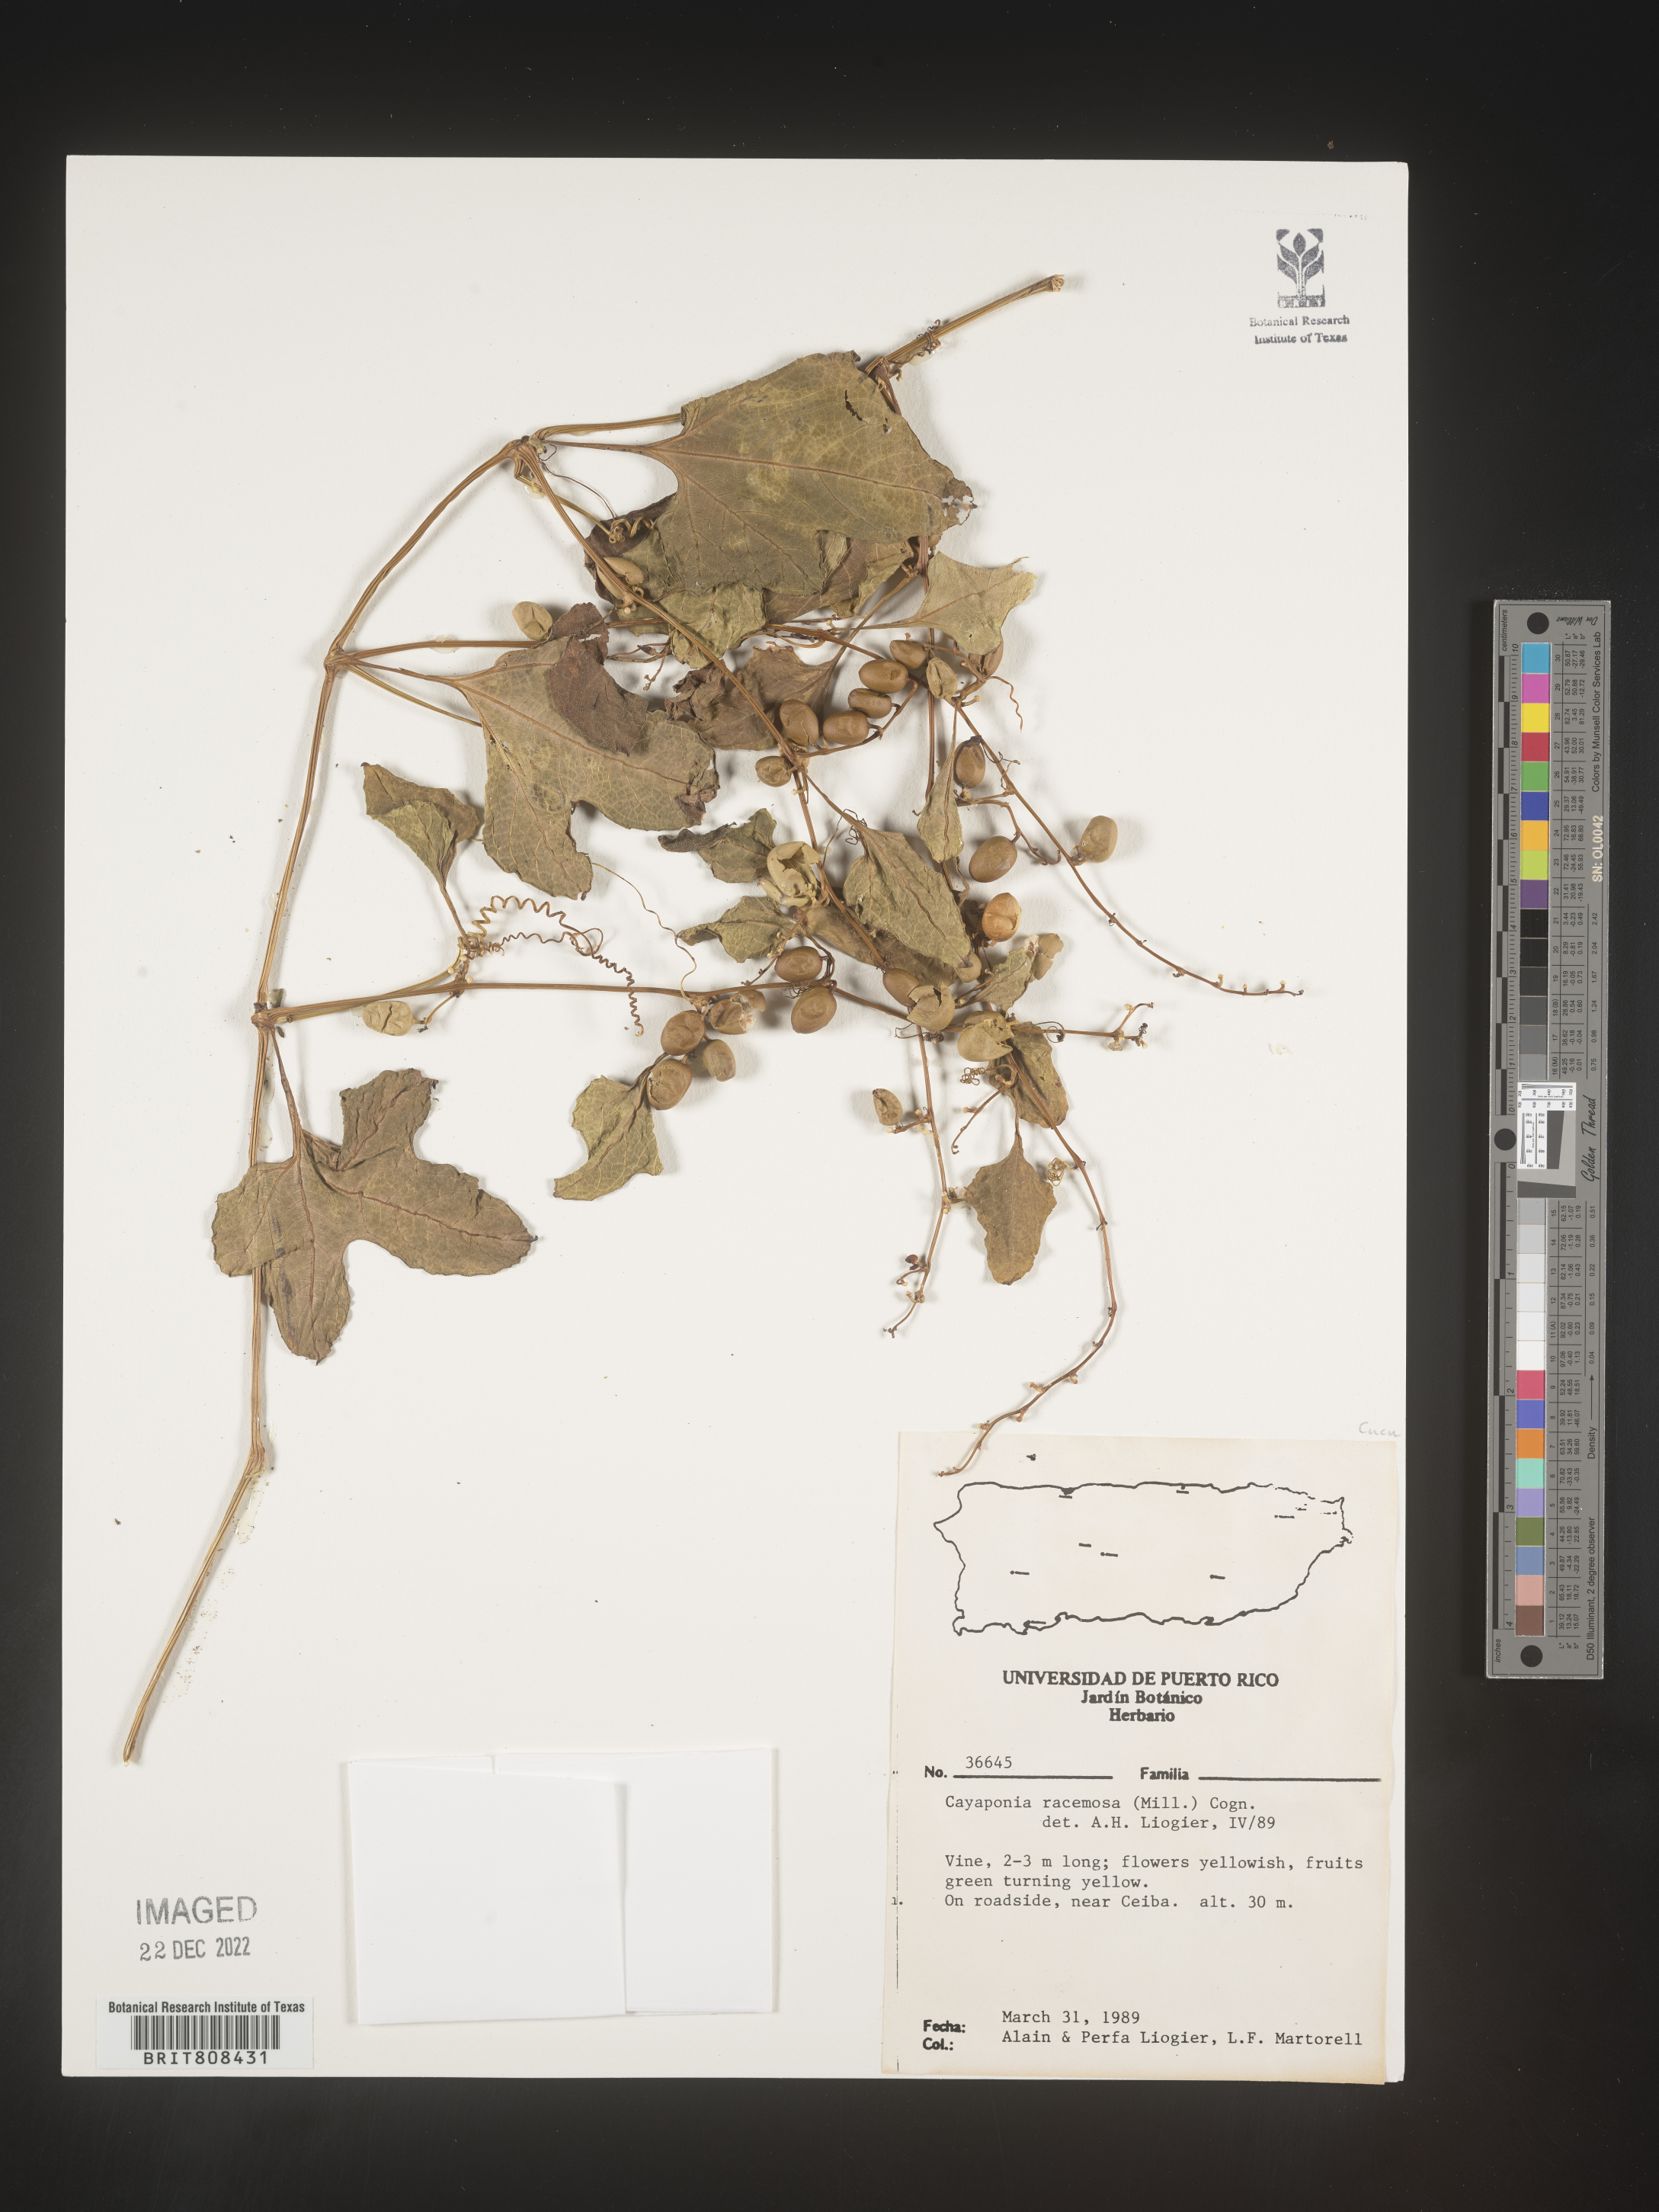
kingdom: Plantae
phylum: Tracheophyta
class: Magnoliopsida
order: Cucurbitales
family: Cucurbitaceae
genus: Cayaponia
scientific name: Cayaponia
